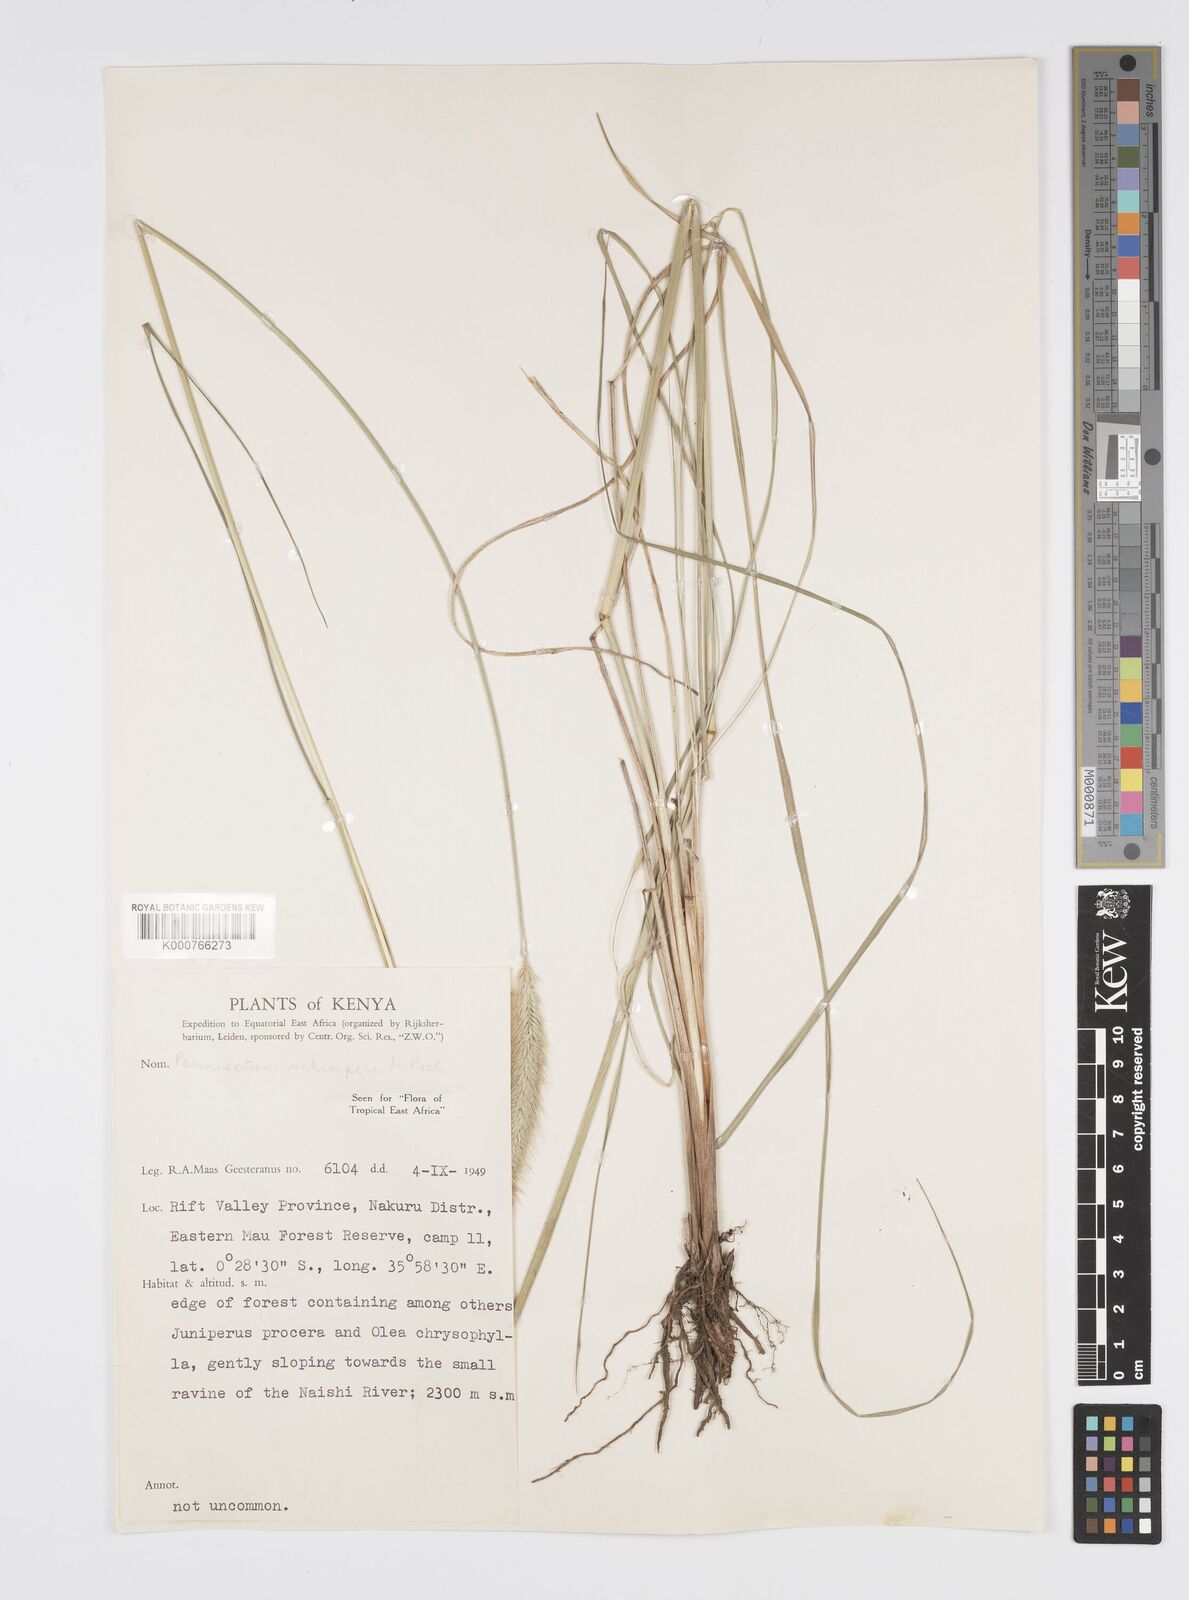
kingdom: Plantae
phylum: Tracheophyta
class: Liliopsida
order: Poales
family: Poaceae
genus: Cenchrus
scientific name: Cenchrus sphacelatus
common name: Bulgras
